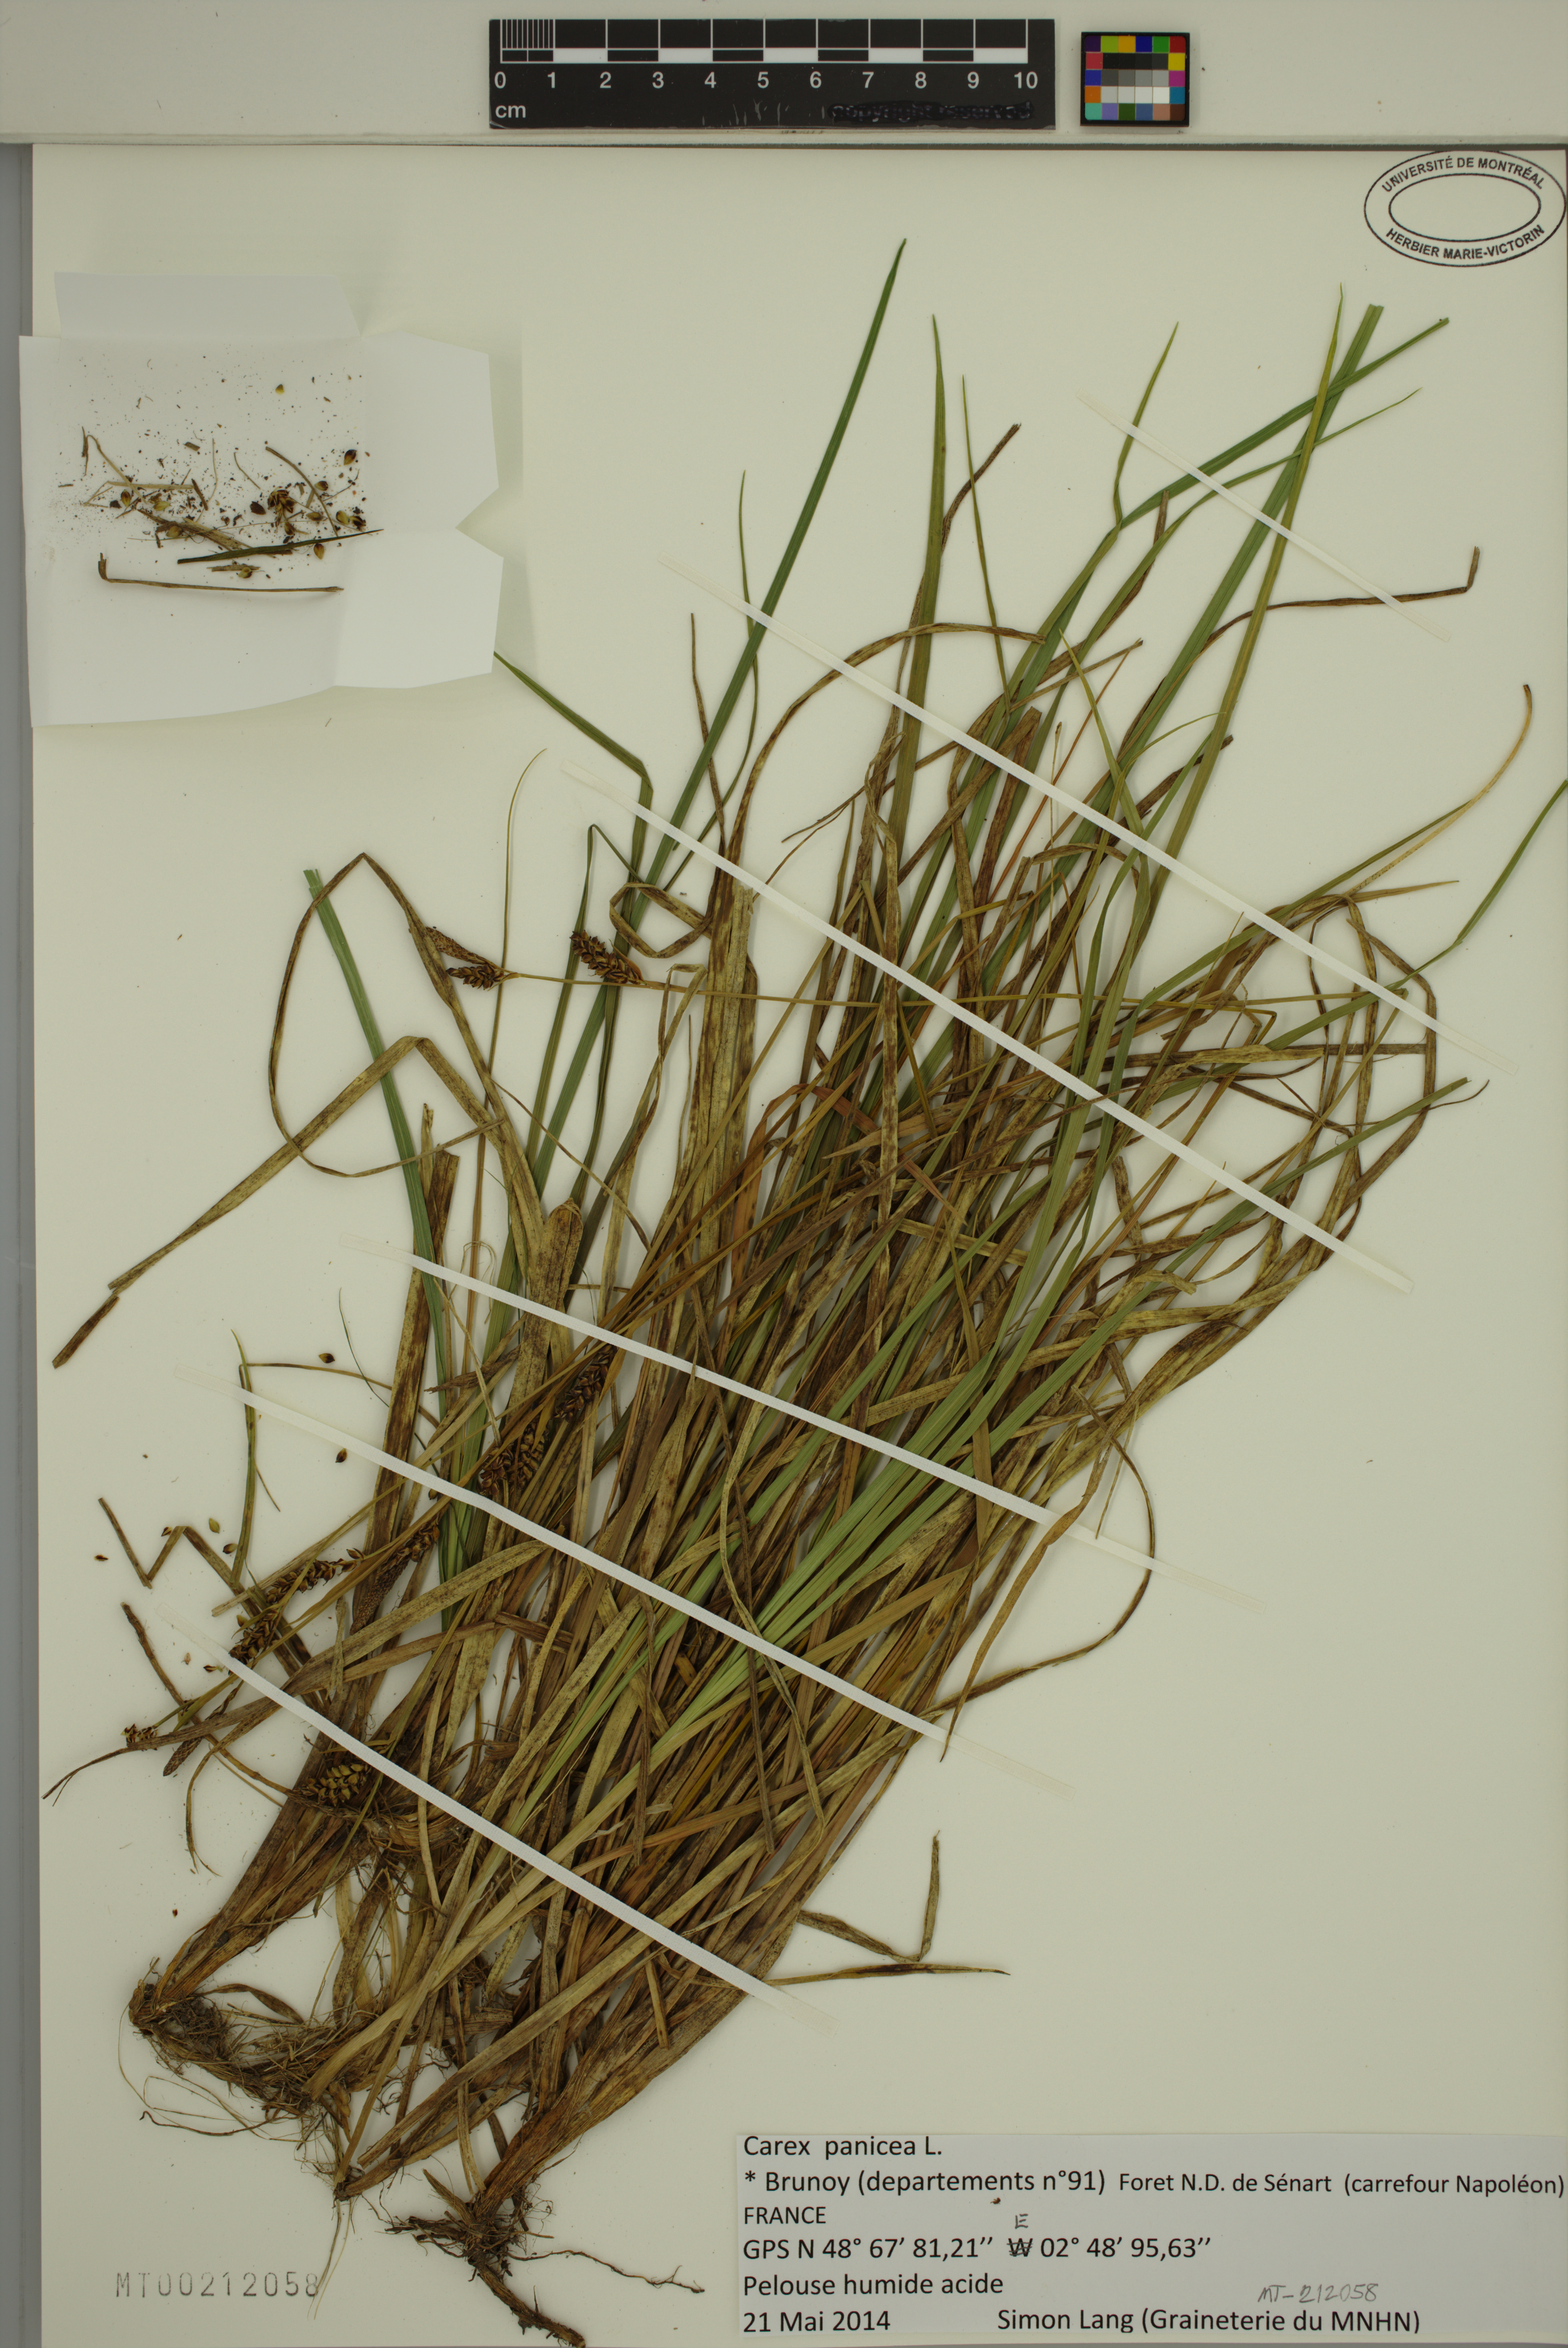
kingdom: Plantae
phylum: Tracheophyta
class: Liliopsida
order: Poales
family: Cyperaceae
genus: Carex
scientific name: Carex panicea
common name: Carnation sedge
